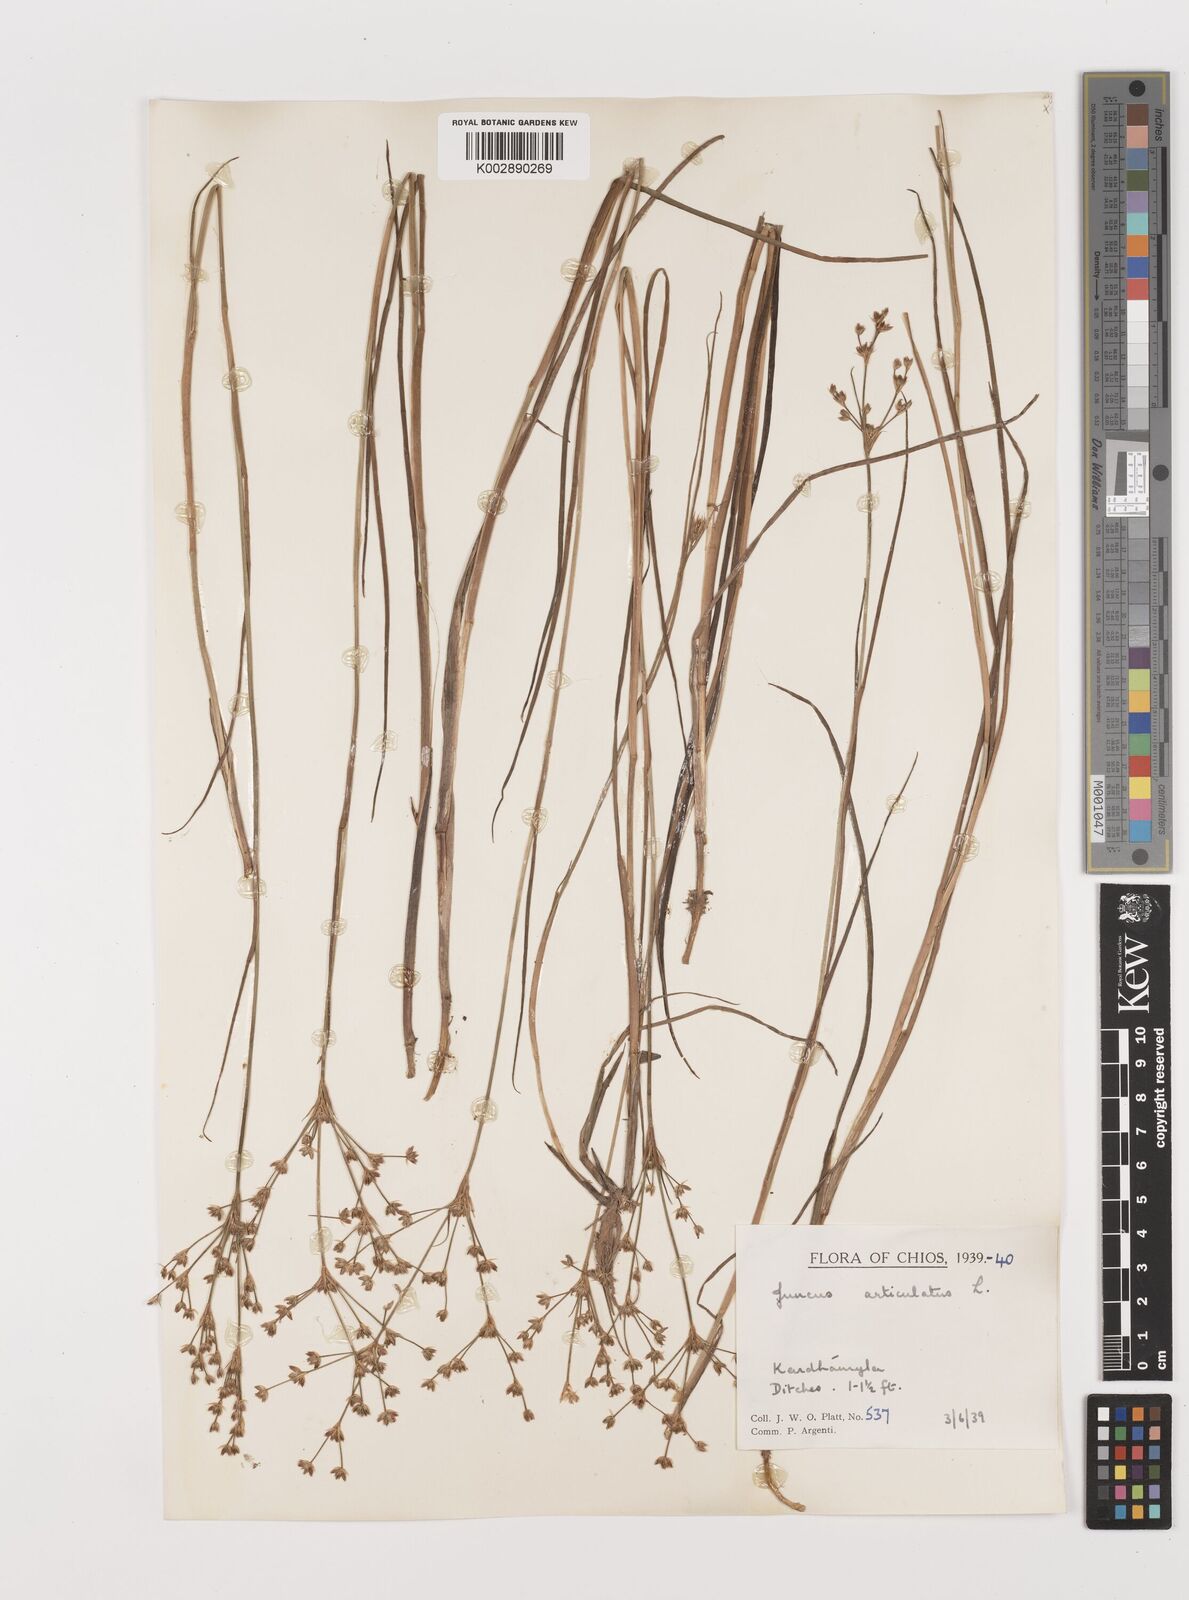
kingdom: Plantae
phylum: Tracheophyta
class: Liliopsida
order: Poales
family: Juncaceae
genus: Juncus
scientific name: Juncus articulatus
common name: Jointed rush
